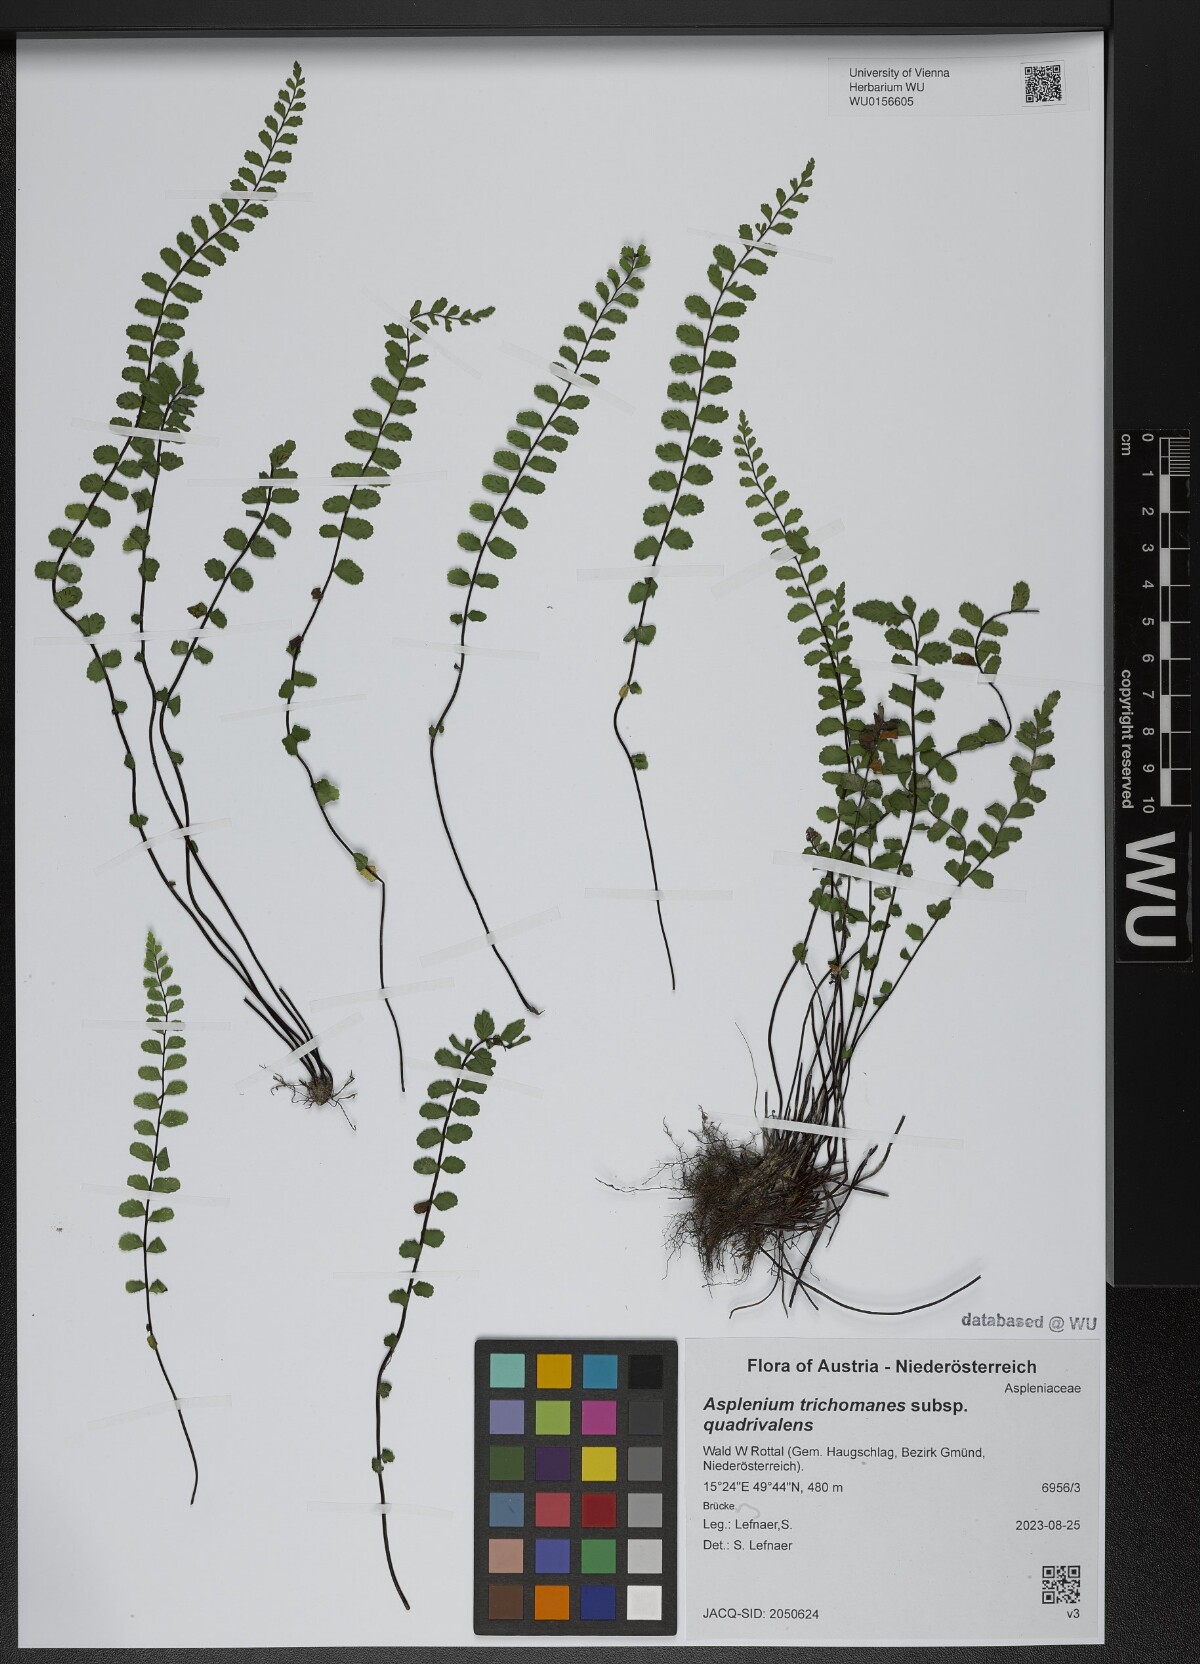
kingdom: Plantae
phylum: Tracheophyta
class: Polypodiopsida
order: Polypodiales
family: Aspleniaceae
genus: Asplenium
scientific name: Asplenium quadrivalens
